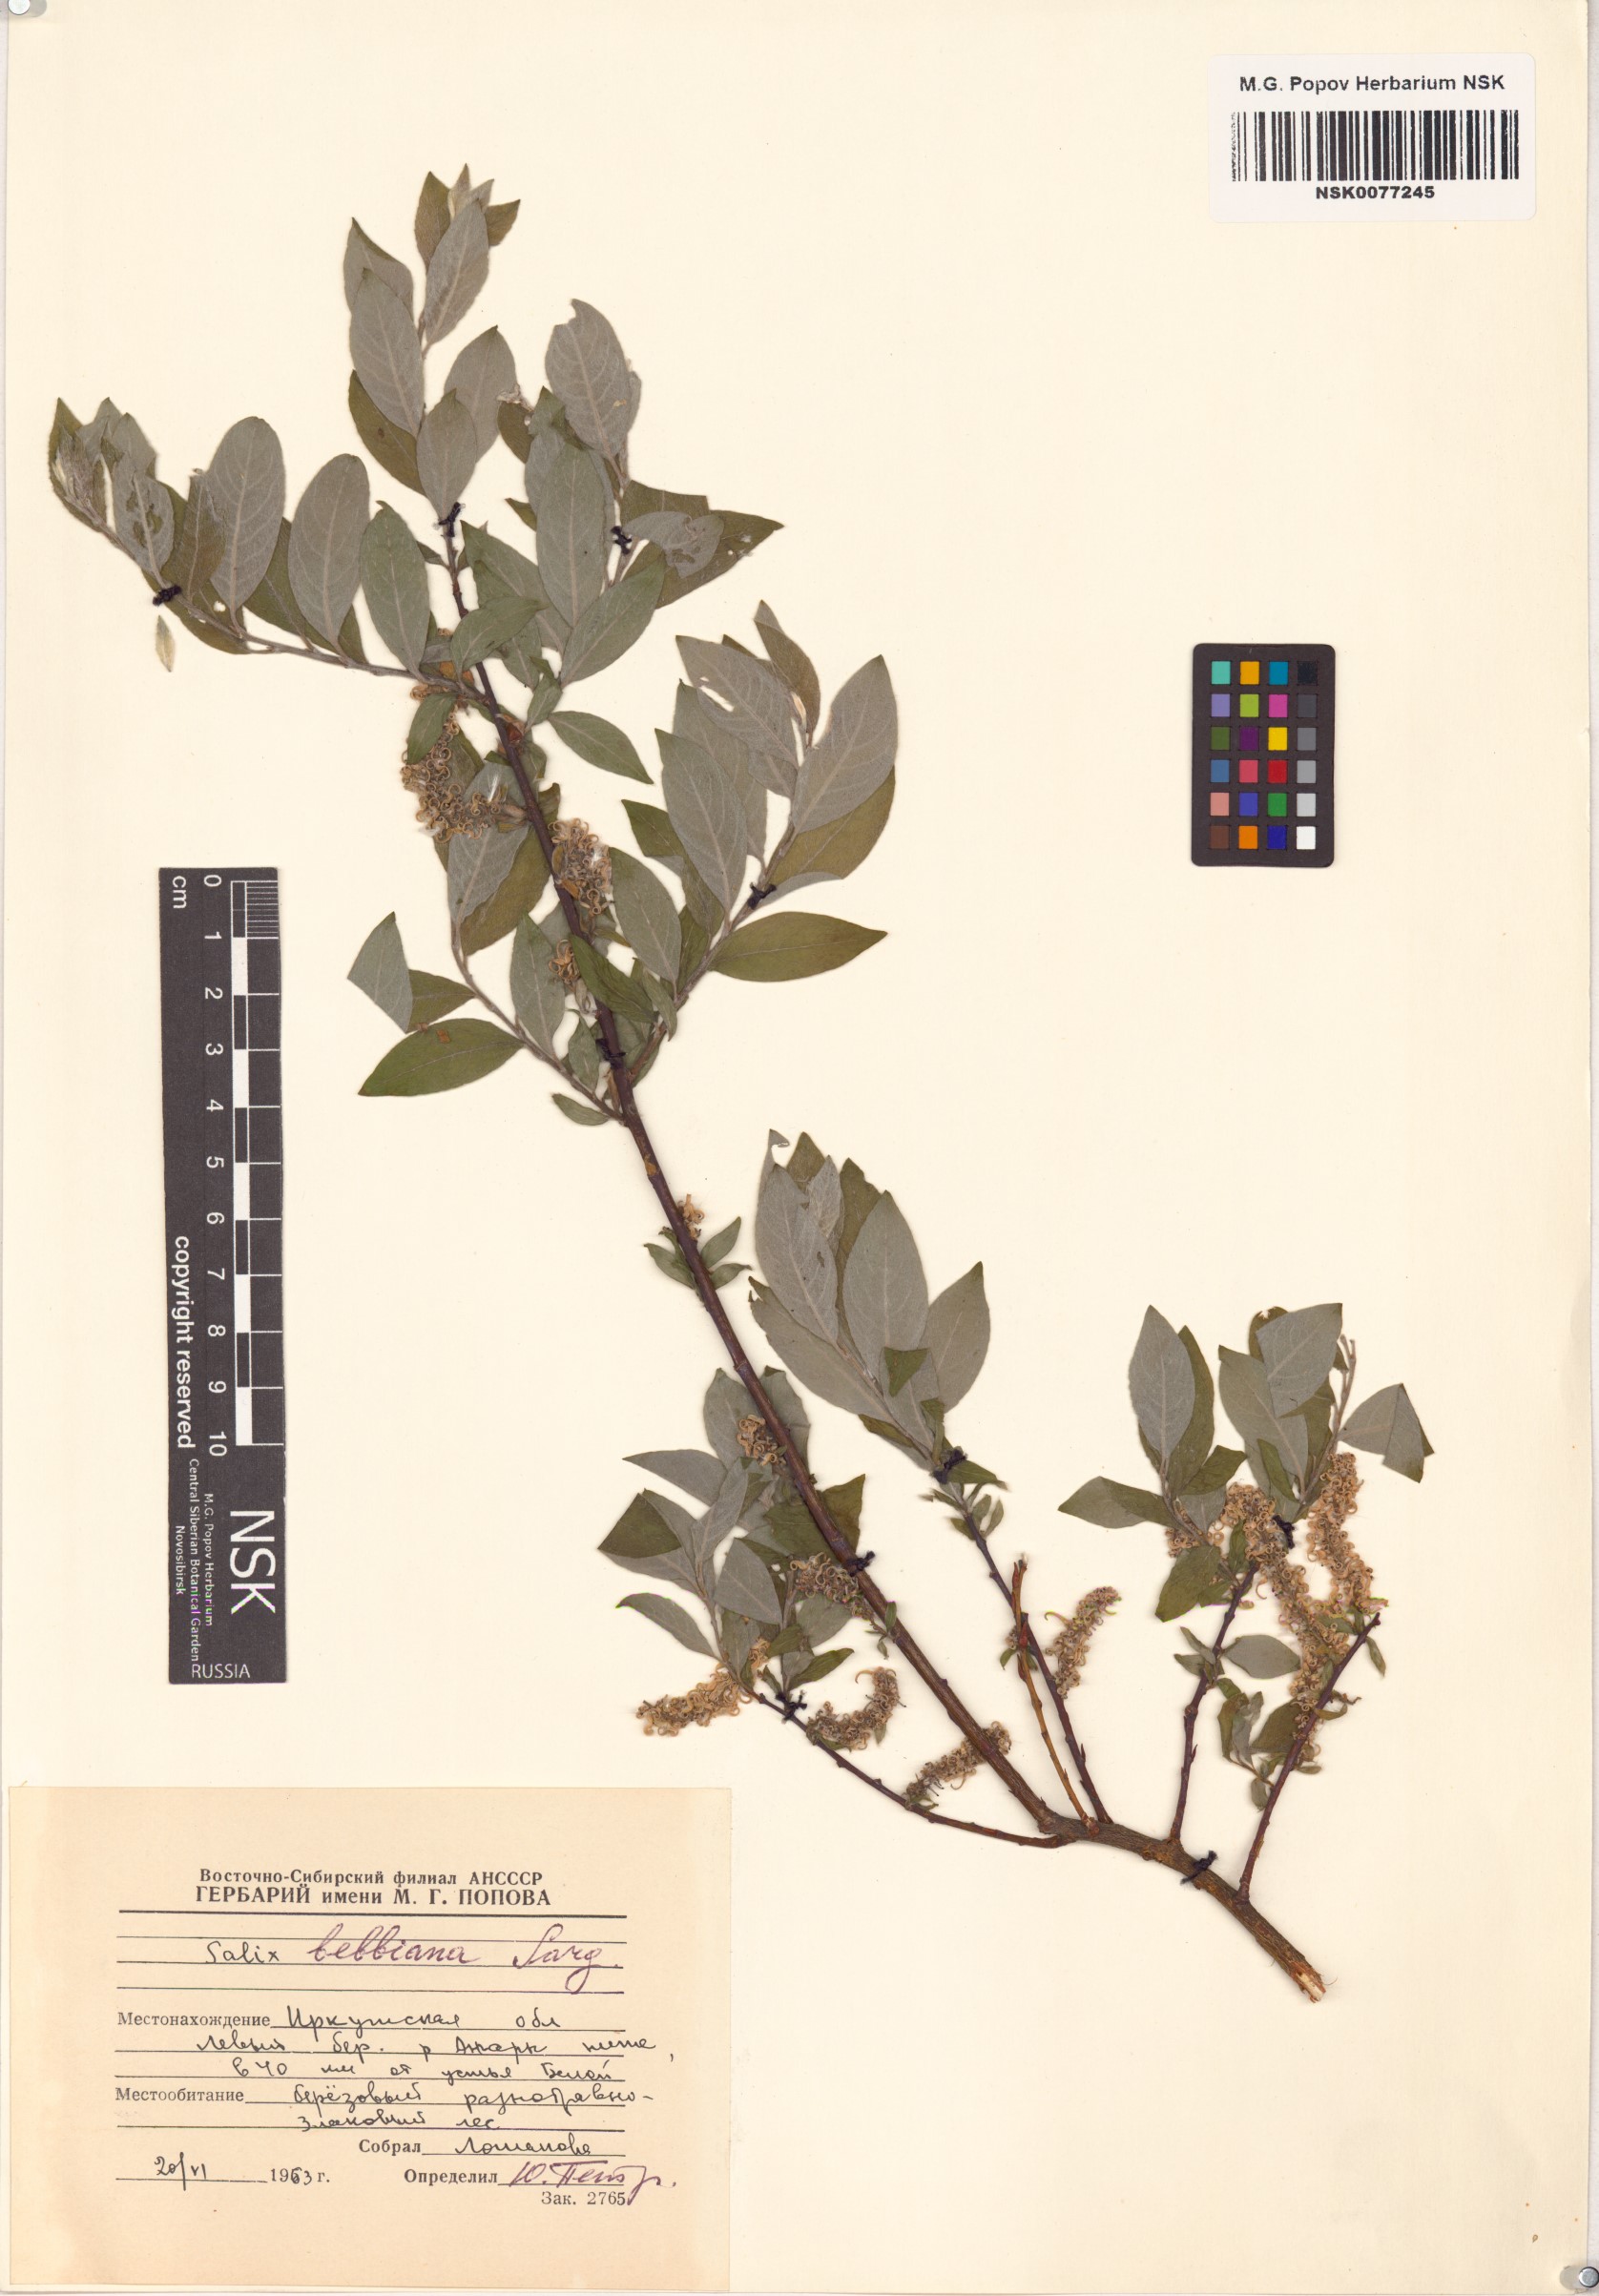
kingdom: Plantae
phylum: Tracheophyta
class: Magnoliopsida
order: Malpighiales
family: Salicaceae
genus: Salix
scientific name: Salix bebbiana
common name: Bebb's willow
